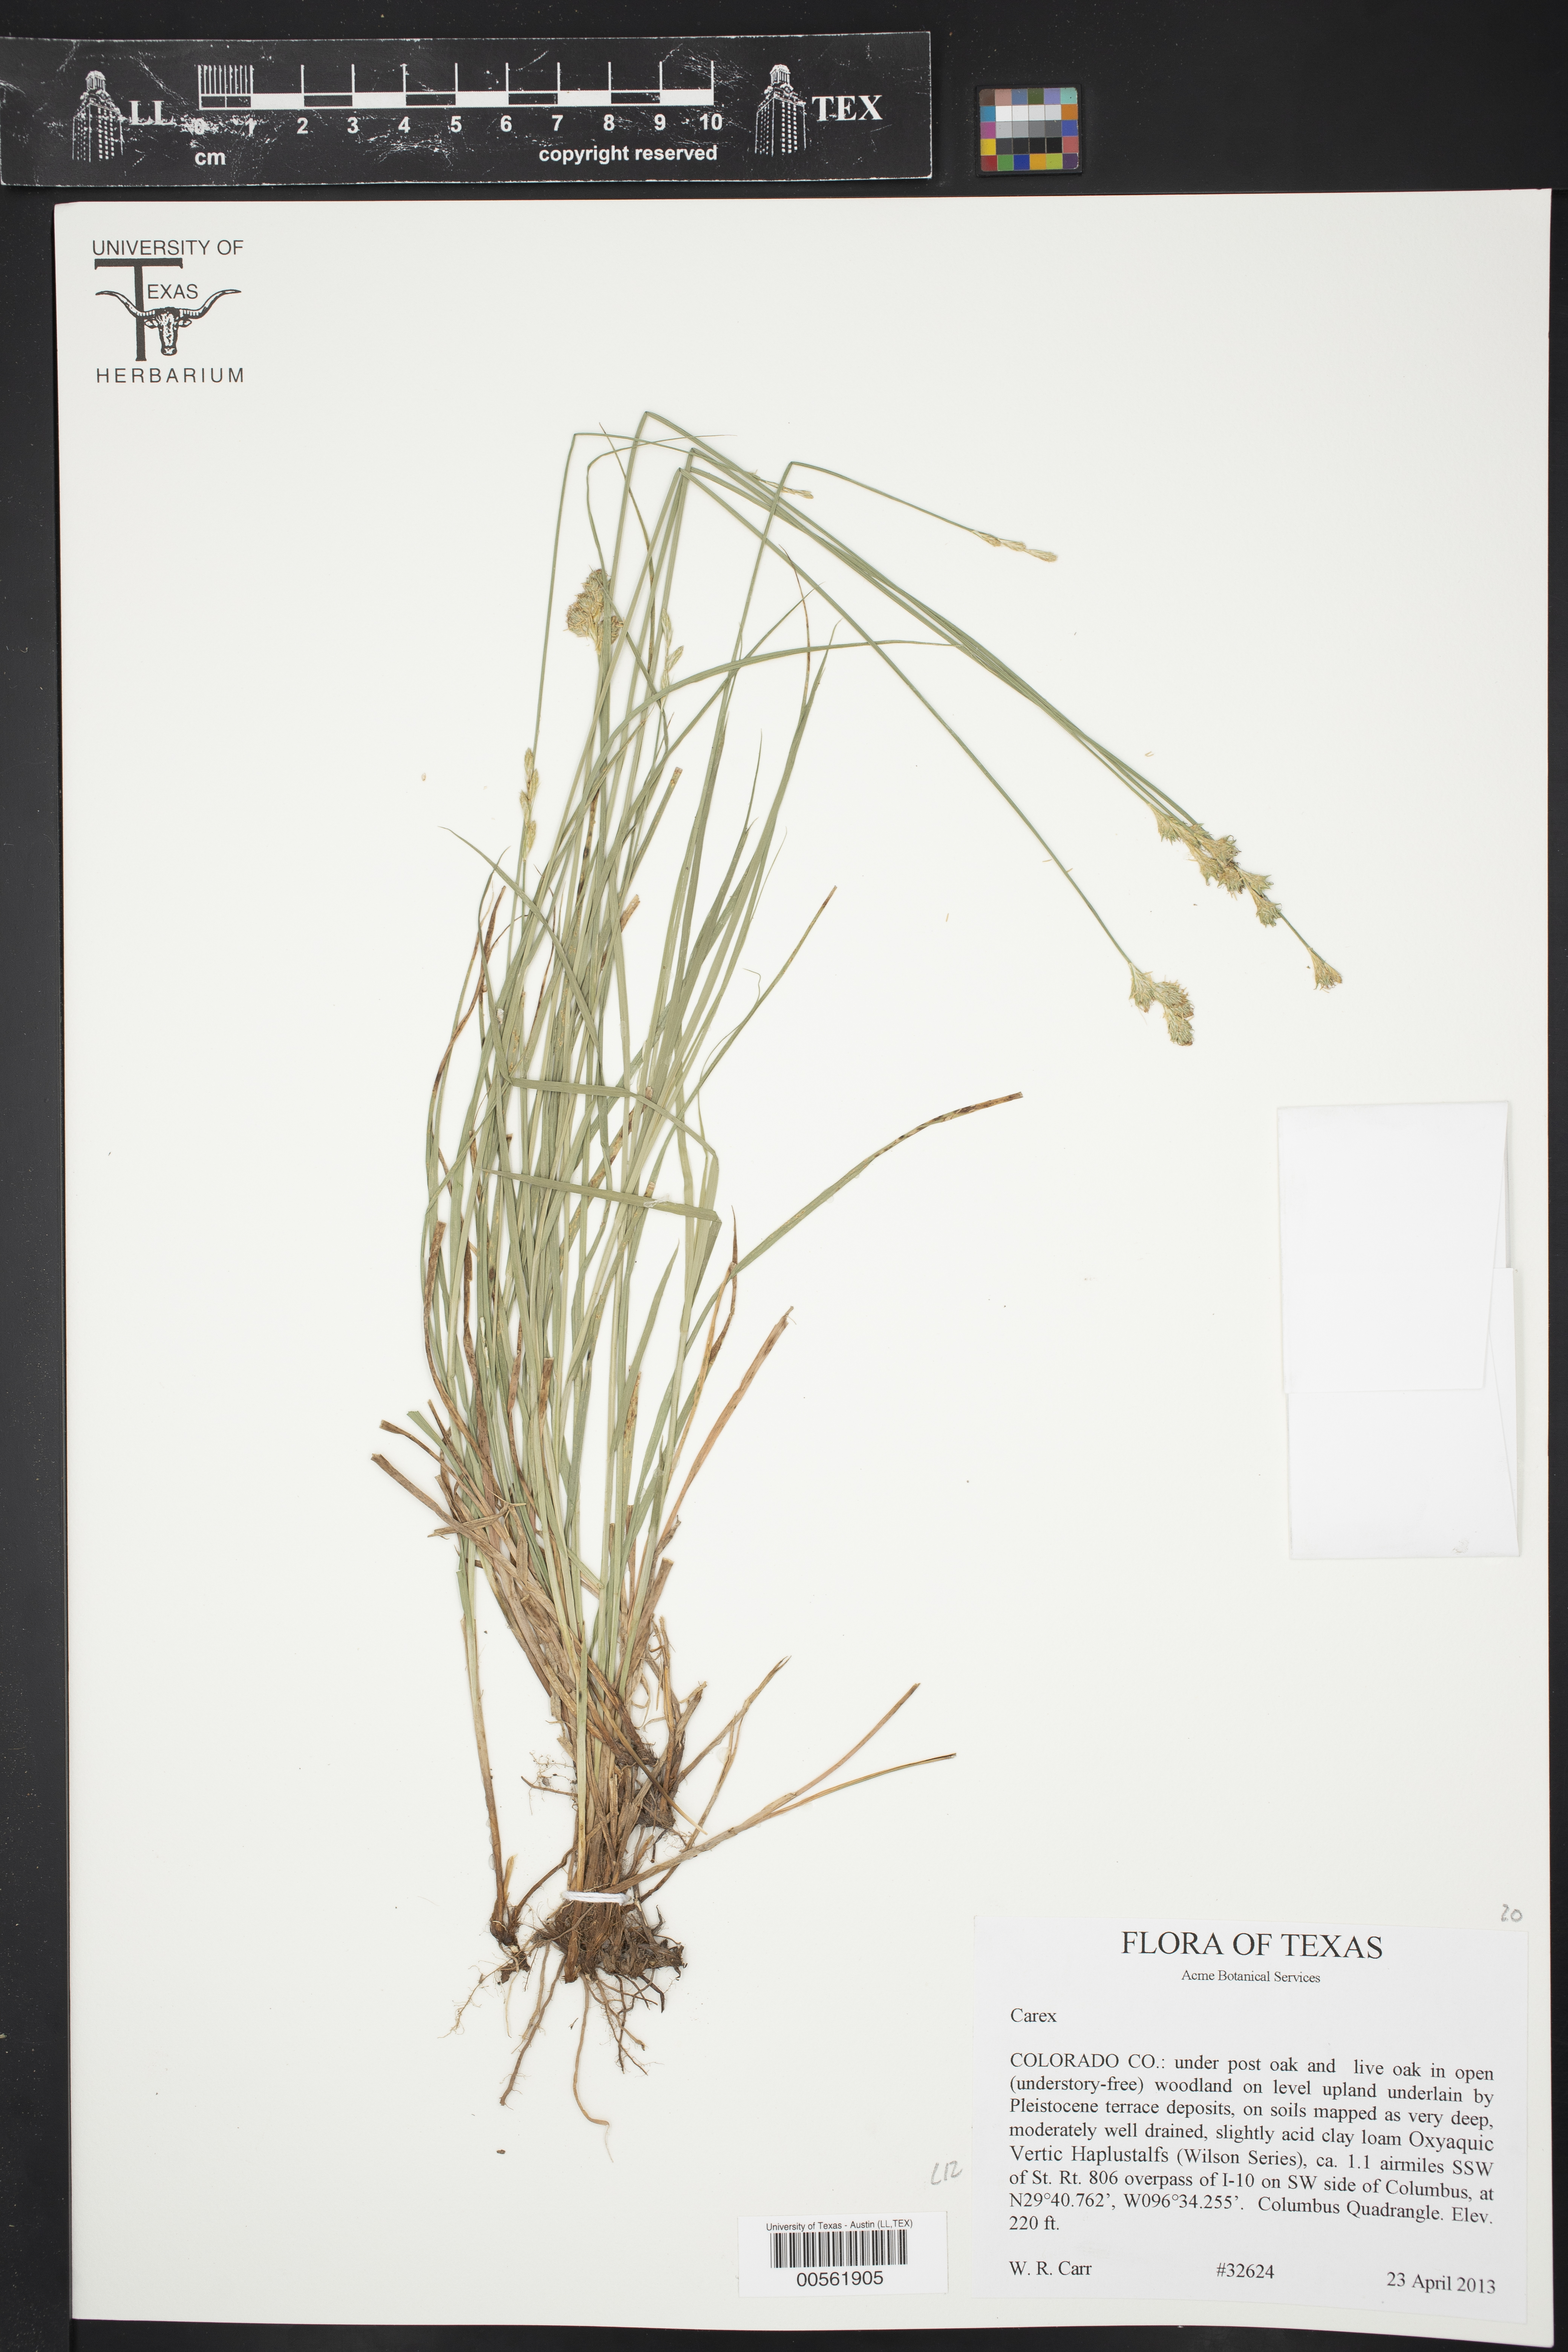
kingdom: Plantae
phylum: Tracheophyta
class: Liliopsida
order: Poales
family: Cyperaceae
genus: Carex
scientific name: Carex
